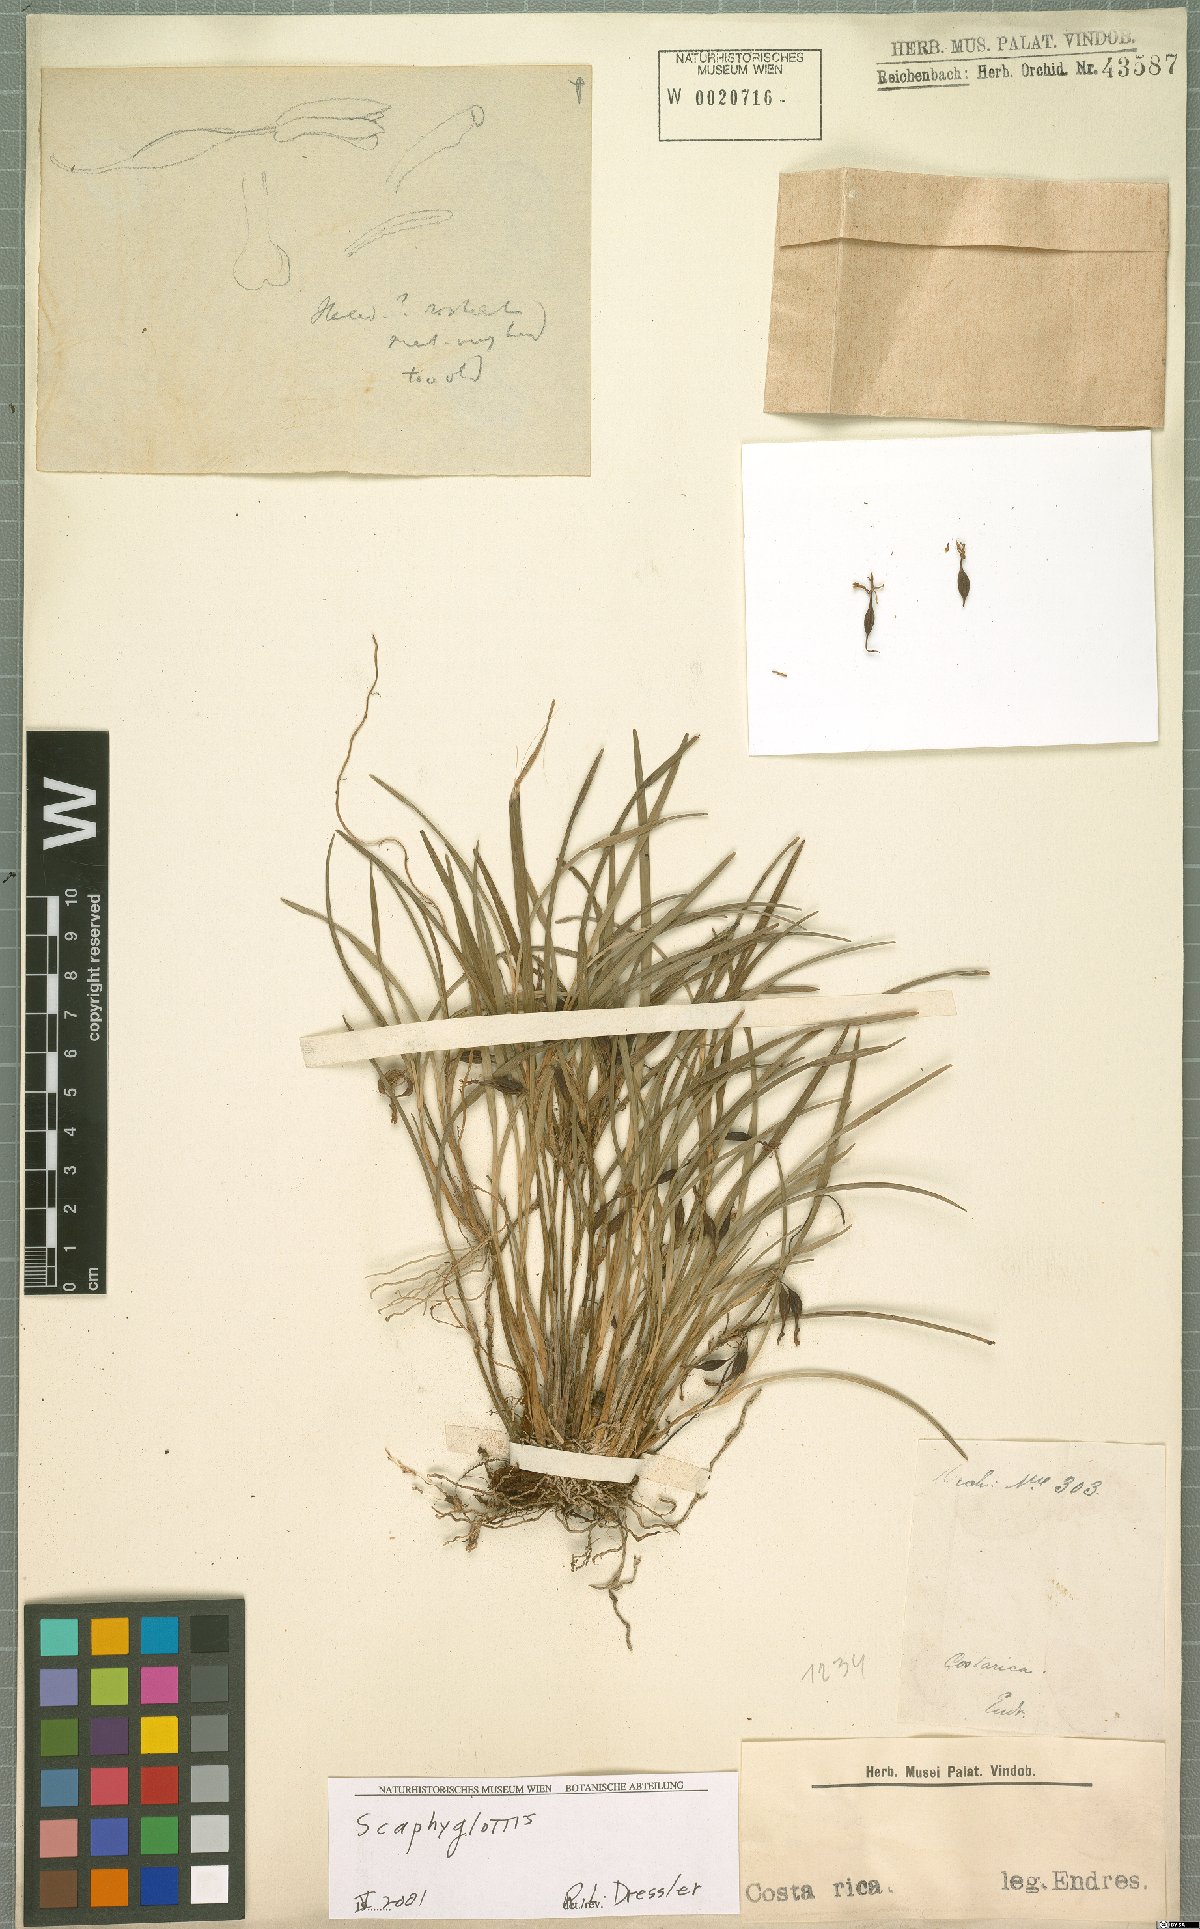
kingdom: Plantae
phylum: Tracheophyta
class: Liliopsida
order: Asparagales
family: Orchidaceae
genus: Scaphyglottis
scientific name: Scaphyglottis
